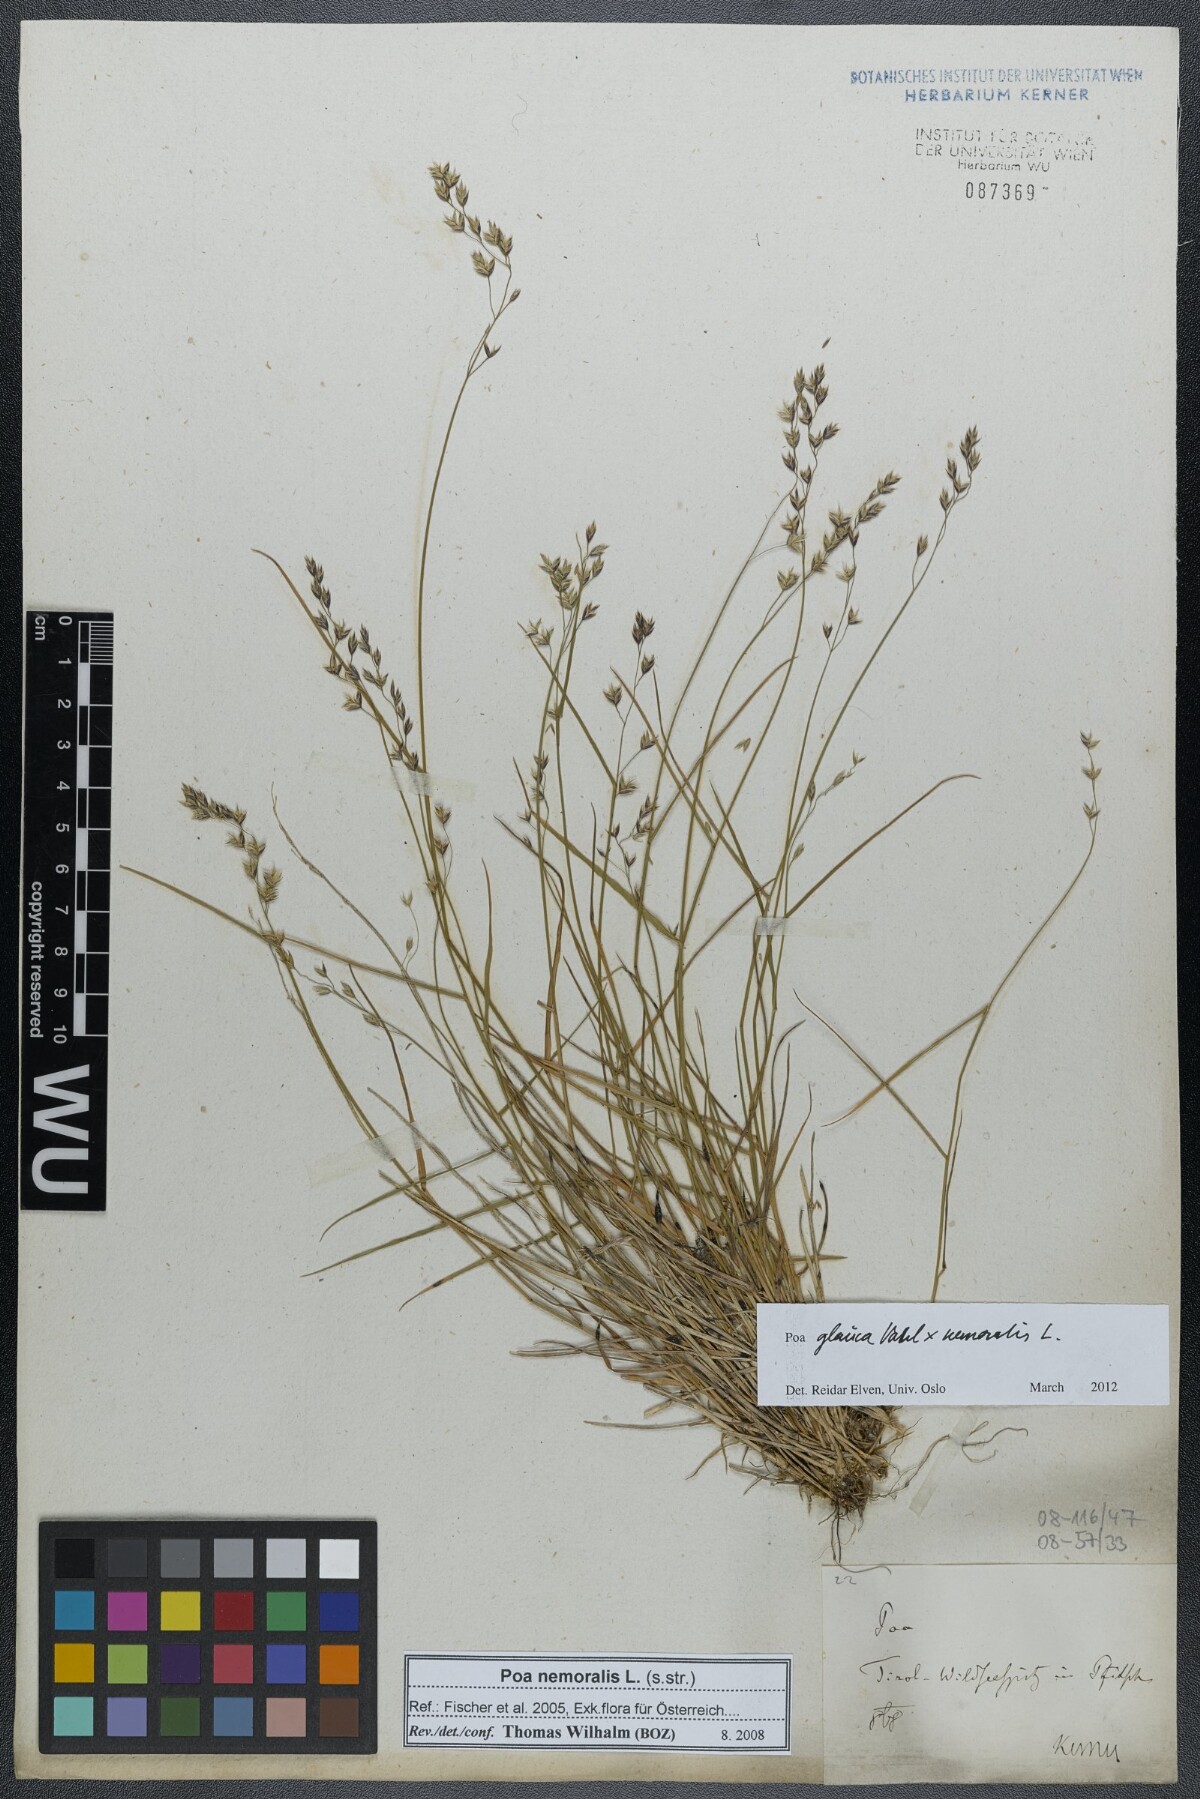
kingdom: Plantae
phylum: Tracheophyta
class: Liliopsida
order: Poales
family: Poaceae
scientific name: Poaceae
